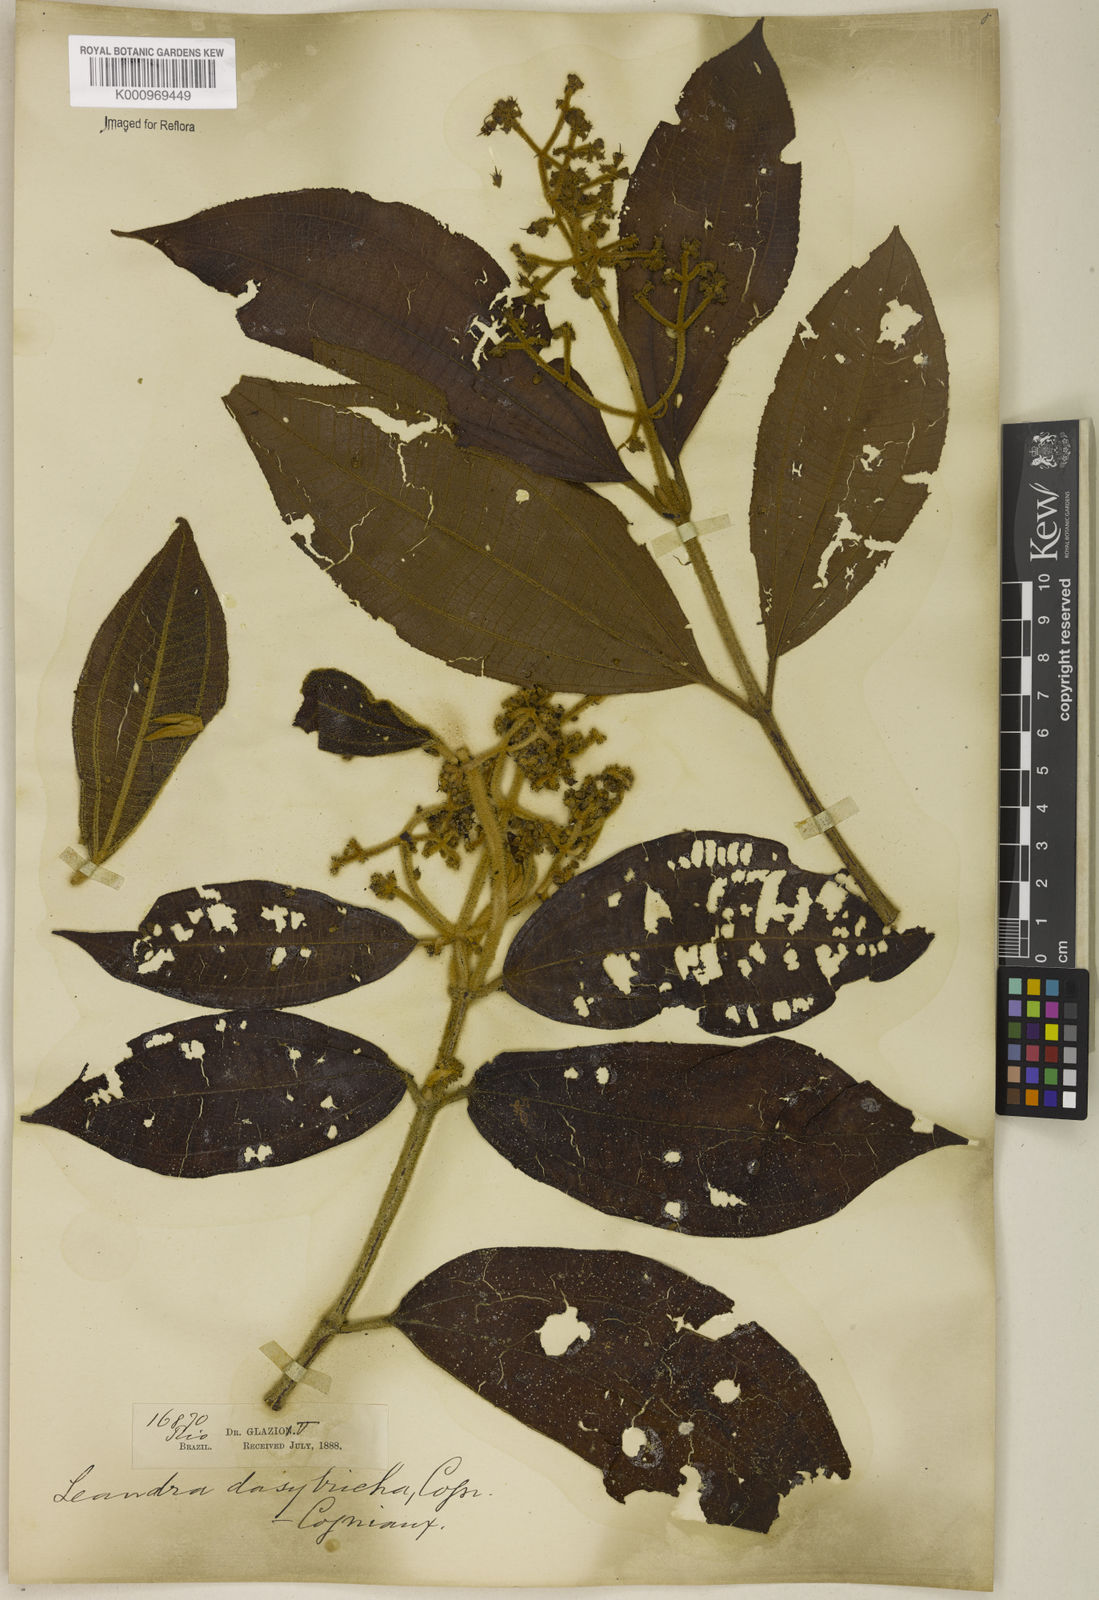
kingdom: Plantae
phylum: Tracheophyta
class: Magnoliopsida
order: Myrtales
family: Melastomataceae
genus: Miconia
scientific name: Miconia dasytricha
